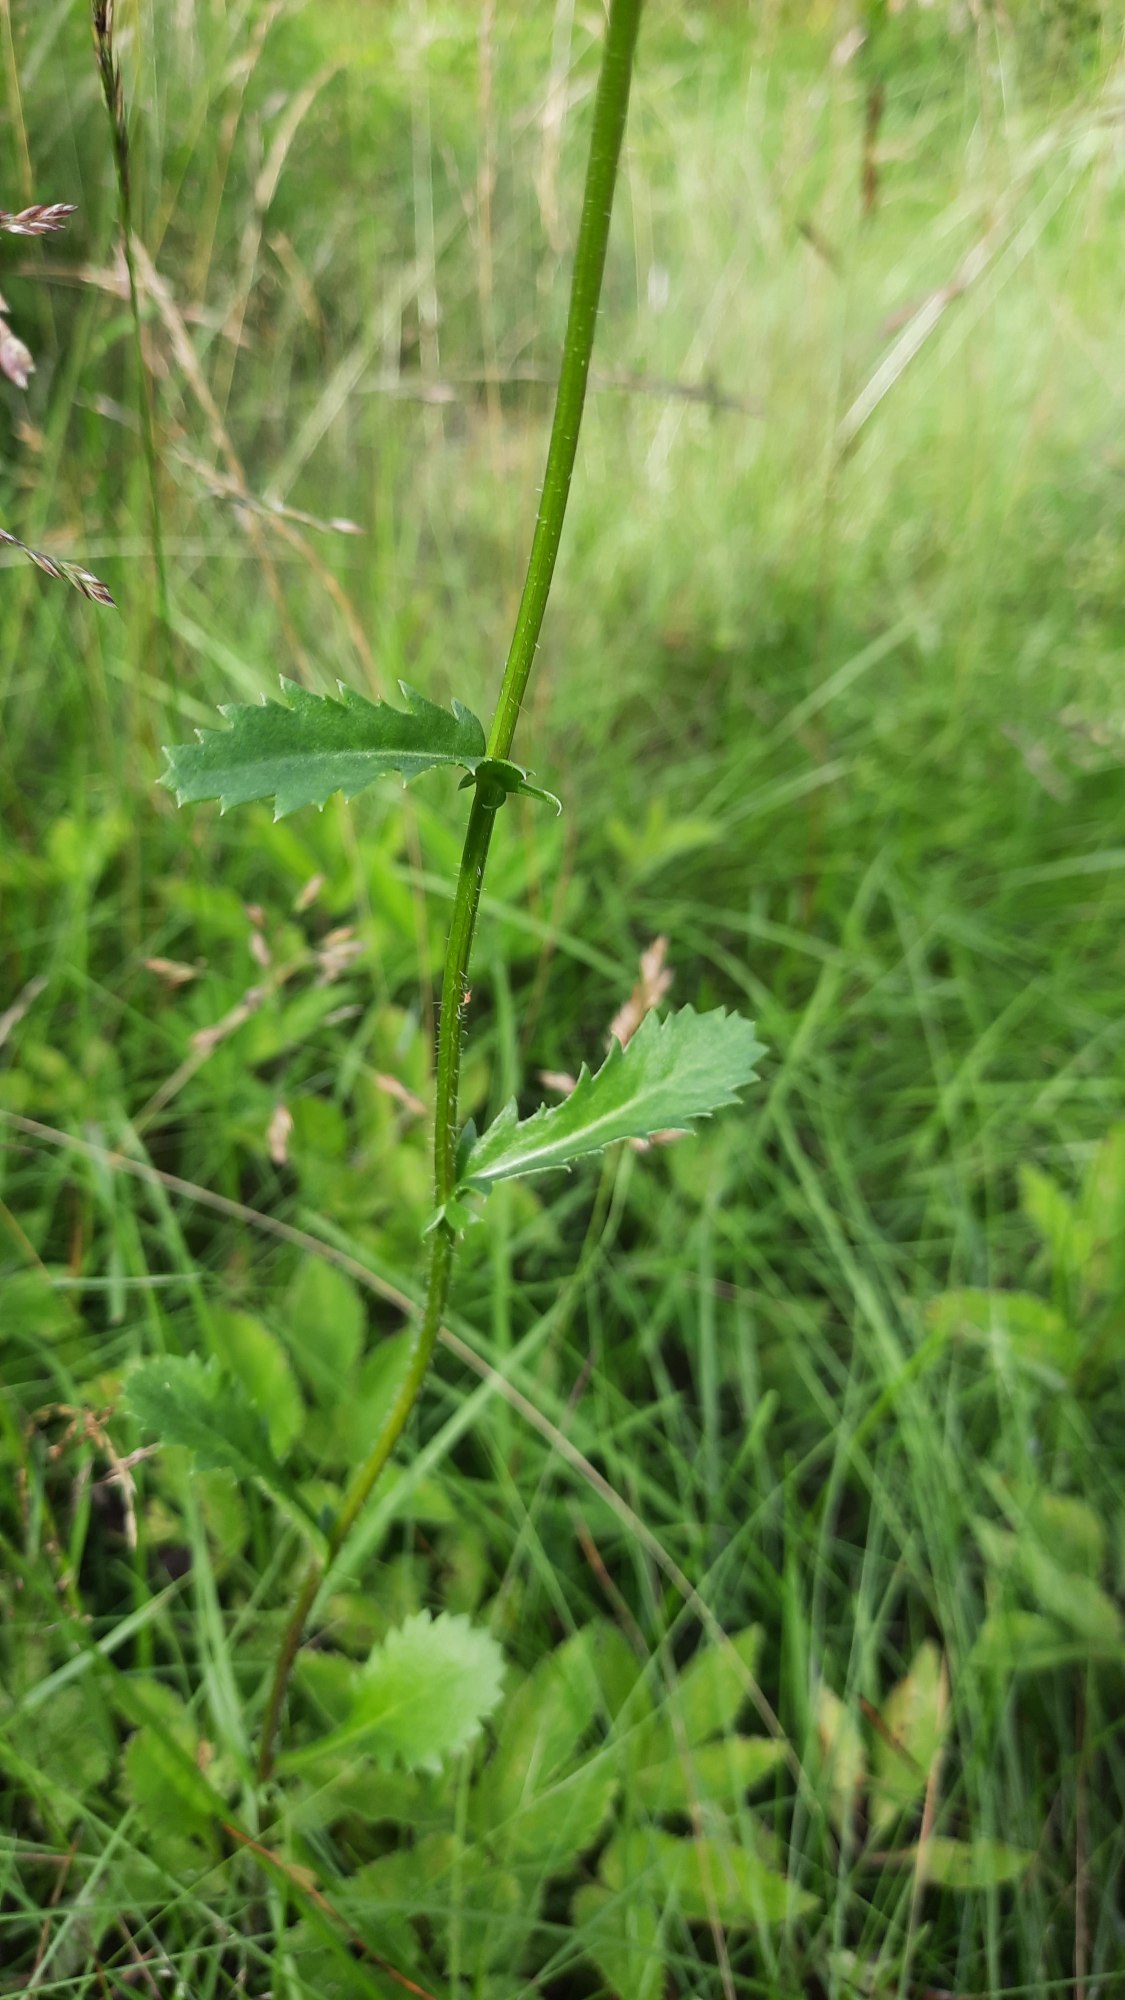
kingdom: Plantae
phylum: Tracheophyta
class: Magnoliopsida
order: Asterales
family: Asteraceae
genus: Leucanthemum
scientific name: Leucanthemum vulgare
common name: Hvid okseøje
